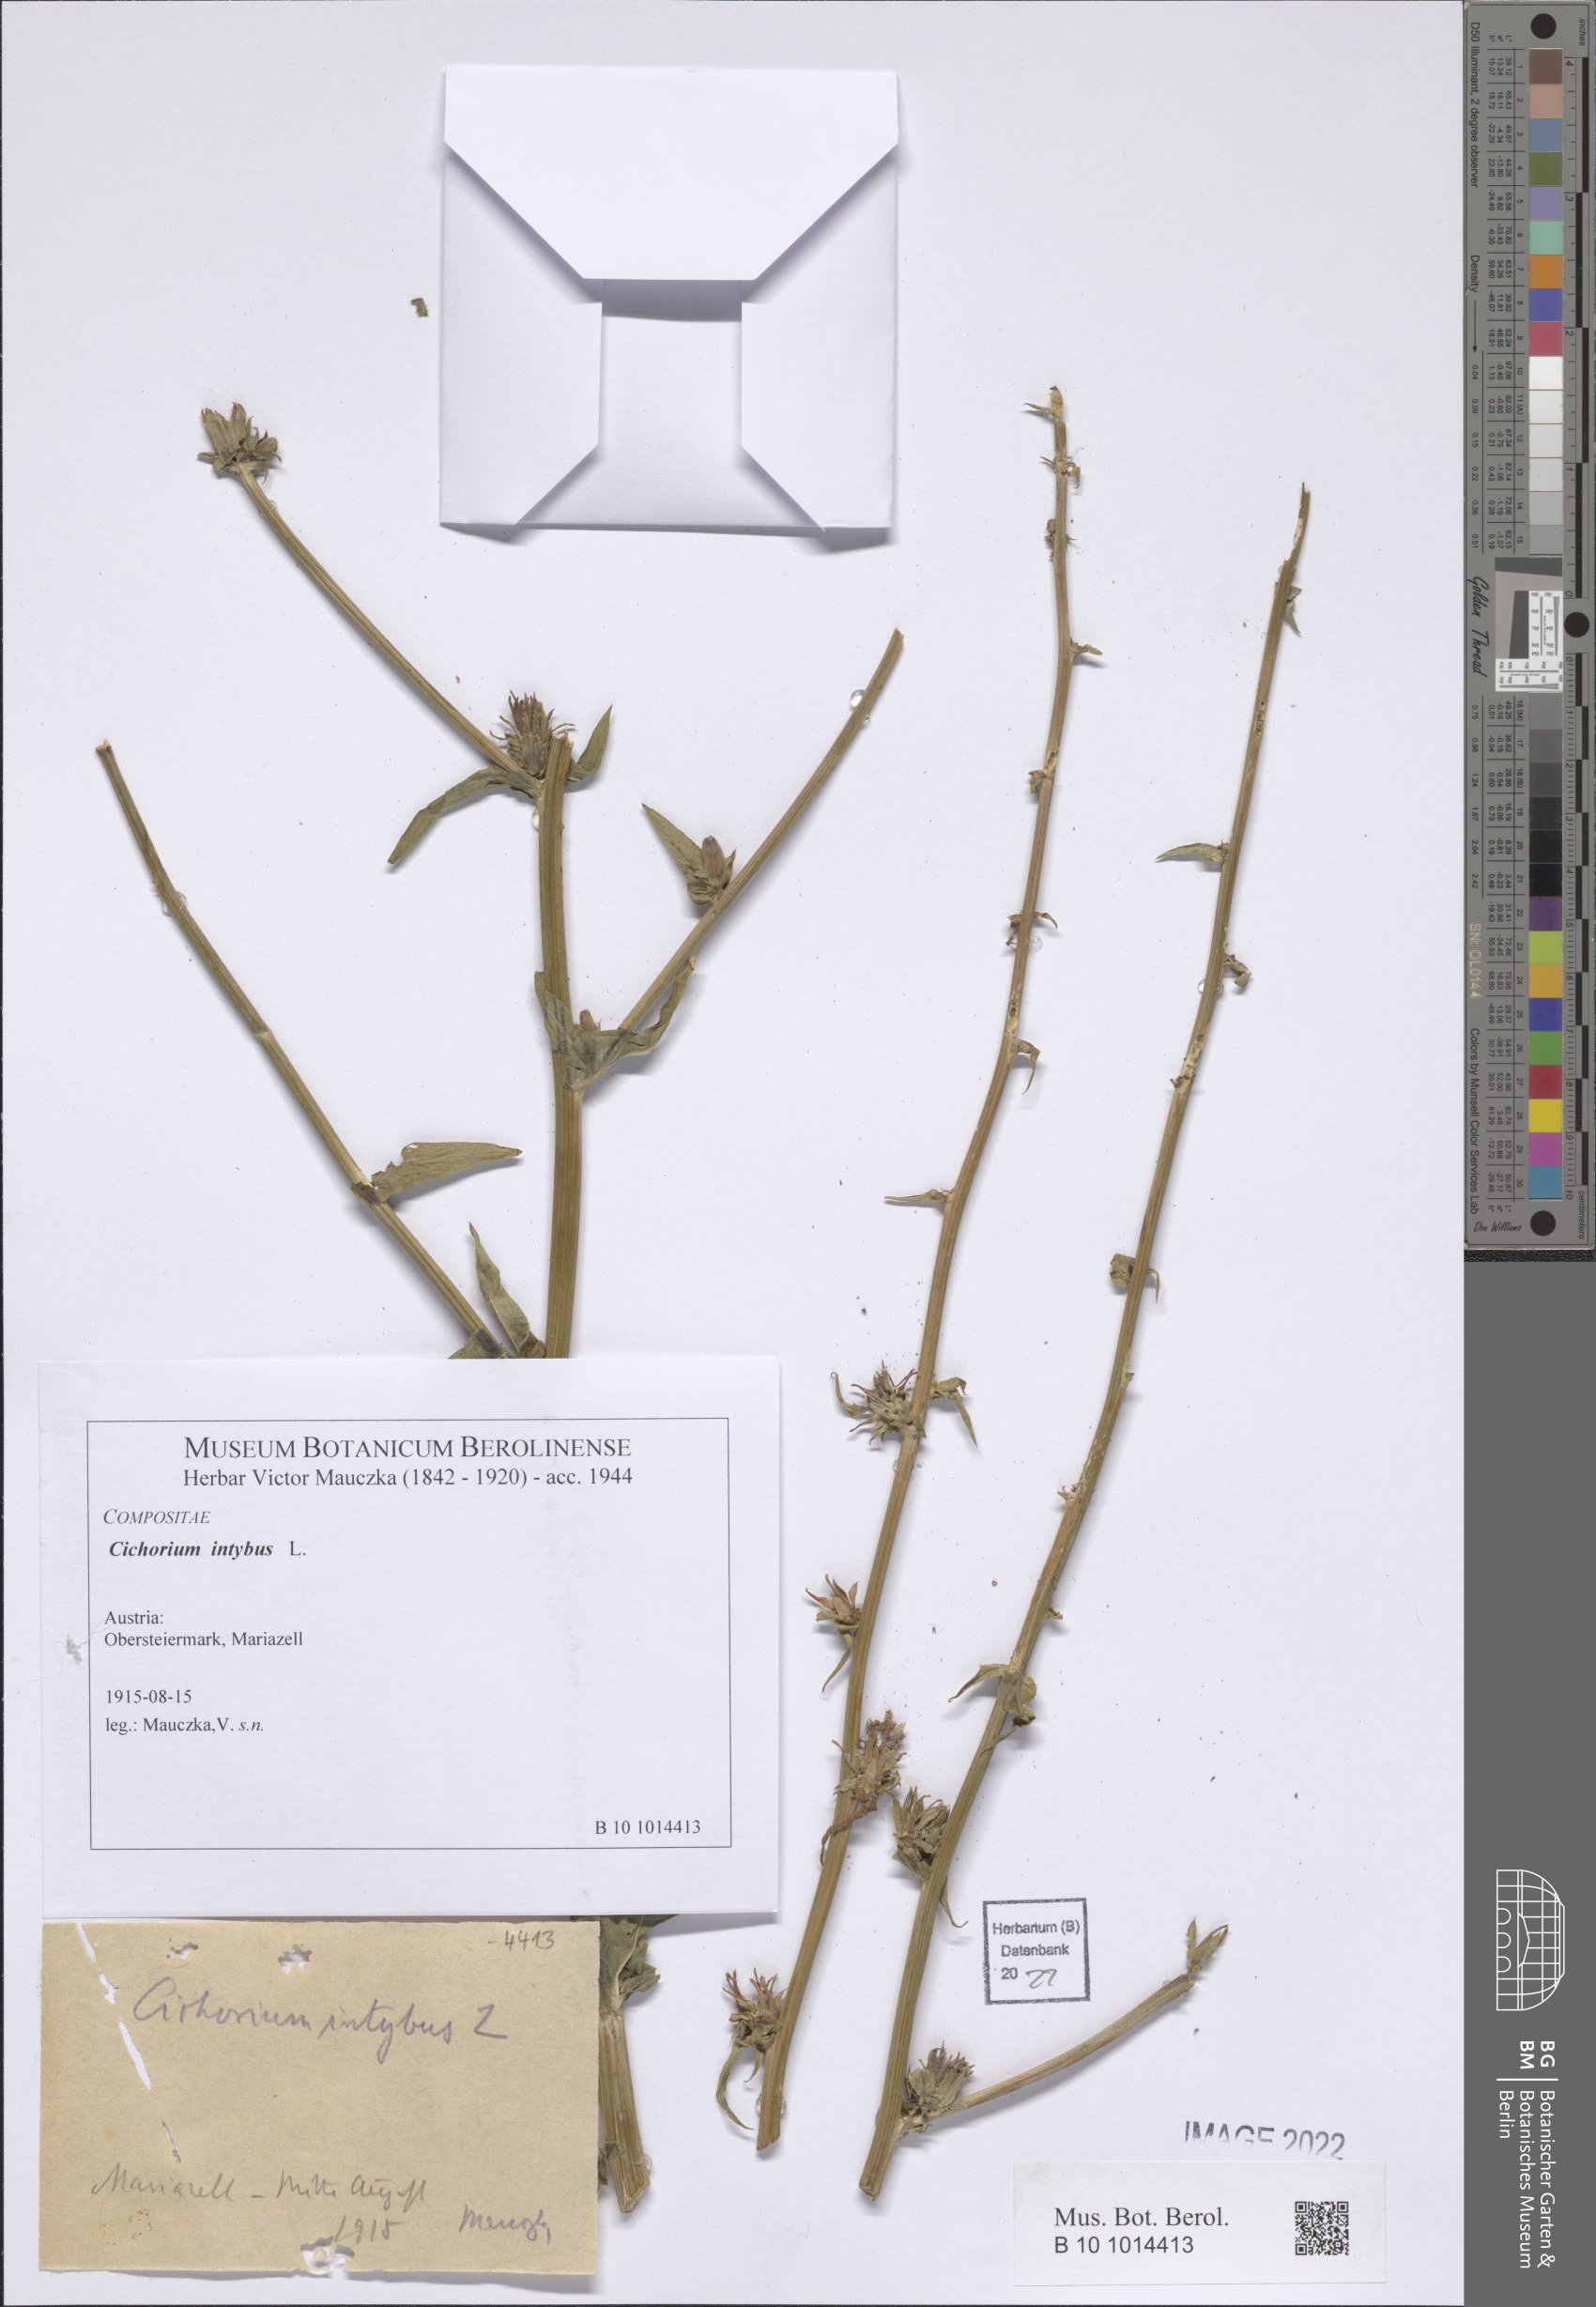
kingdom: Plantae
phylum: Tracheophyta
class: Magnoliopsida
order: Asterales
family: Asteraceae
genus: Cichorium
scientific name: Cichorium intybus
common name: Chicory
